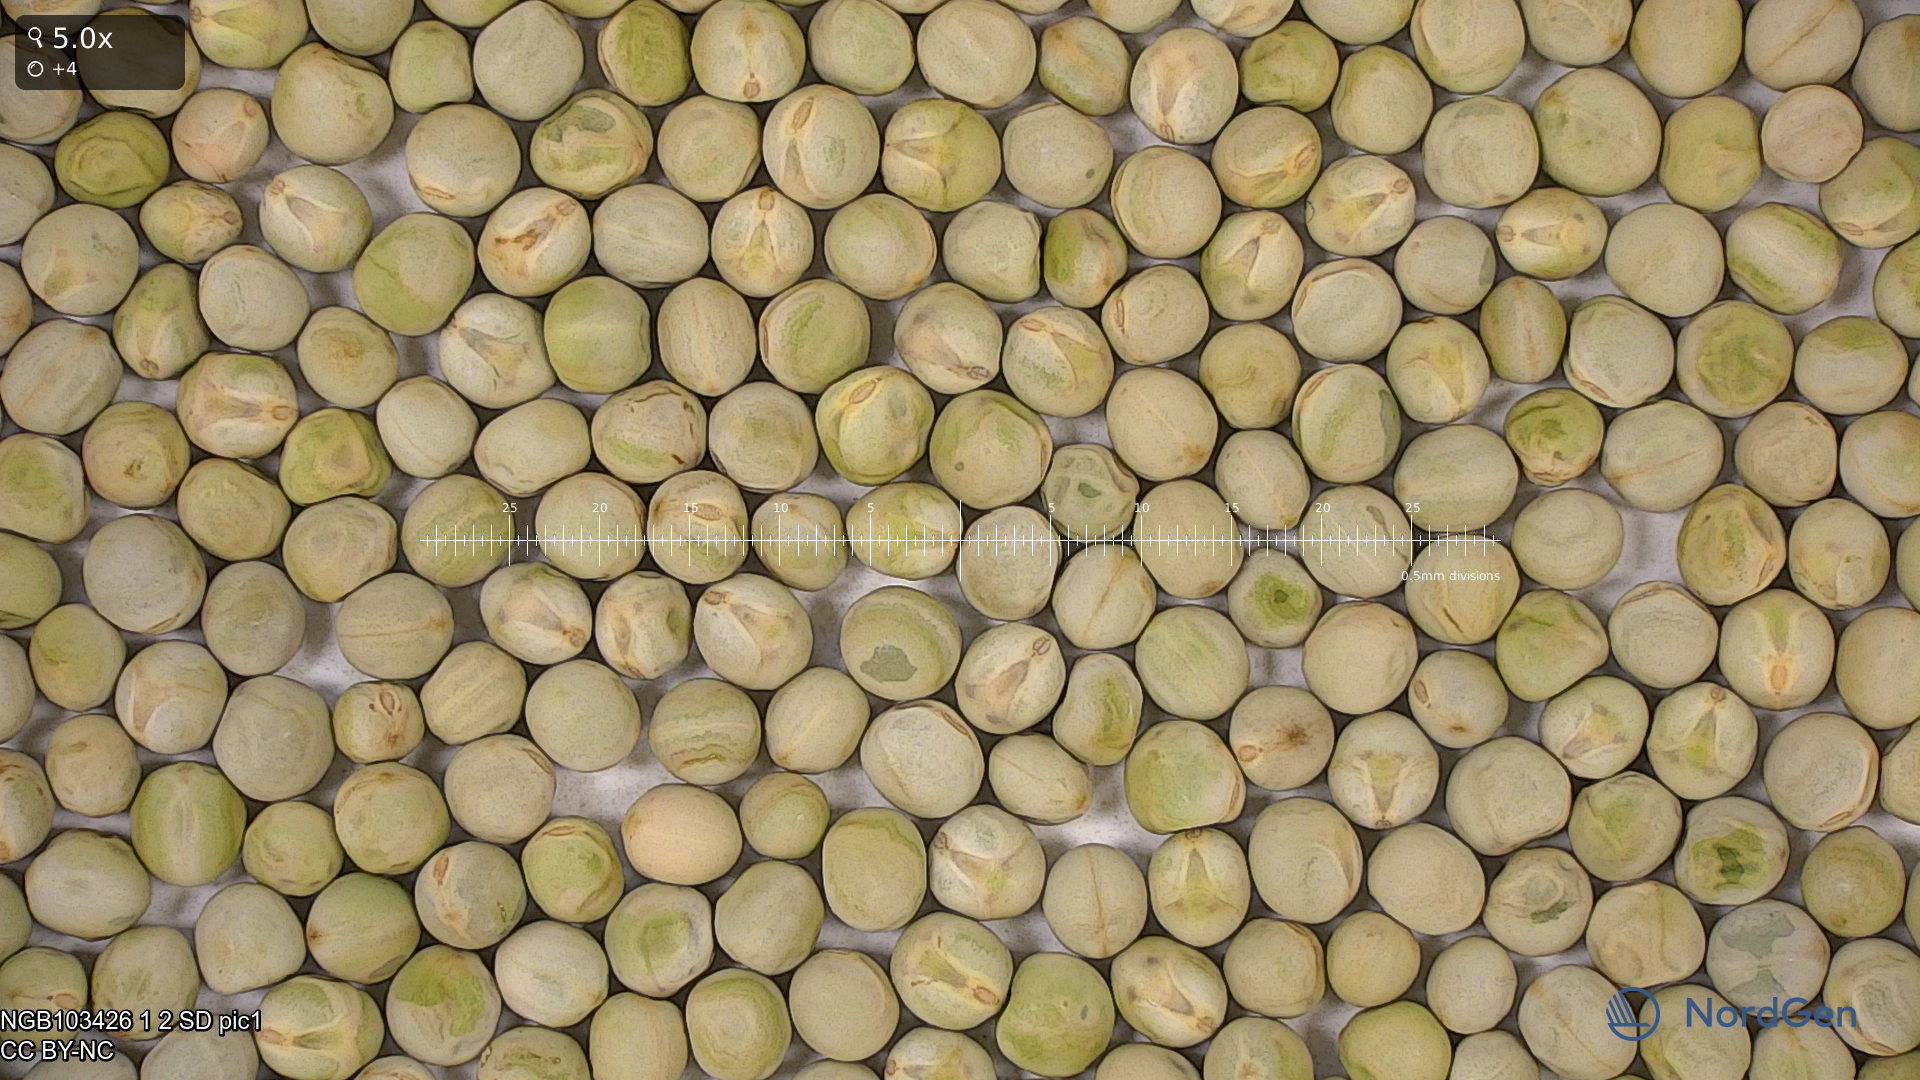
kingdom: Plantae
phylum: Tracheophyta
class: Magnoliopsida
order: Fabales
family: Fabaceae
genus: Lathyrus
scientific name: Lathyrus oleraceus
